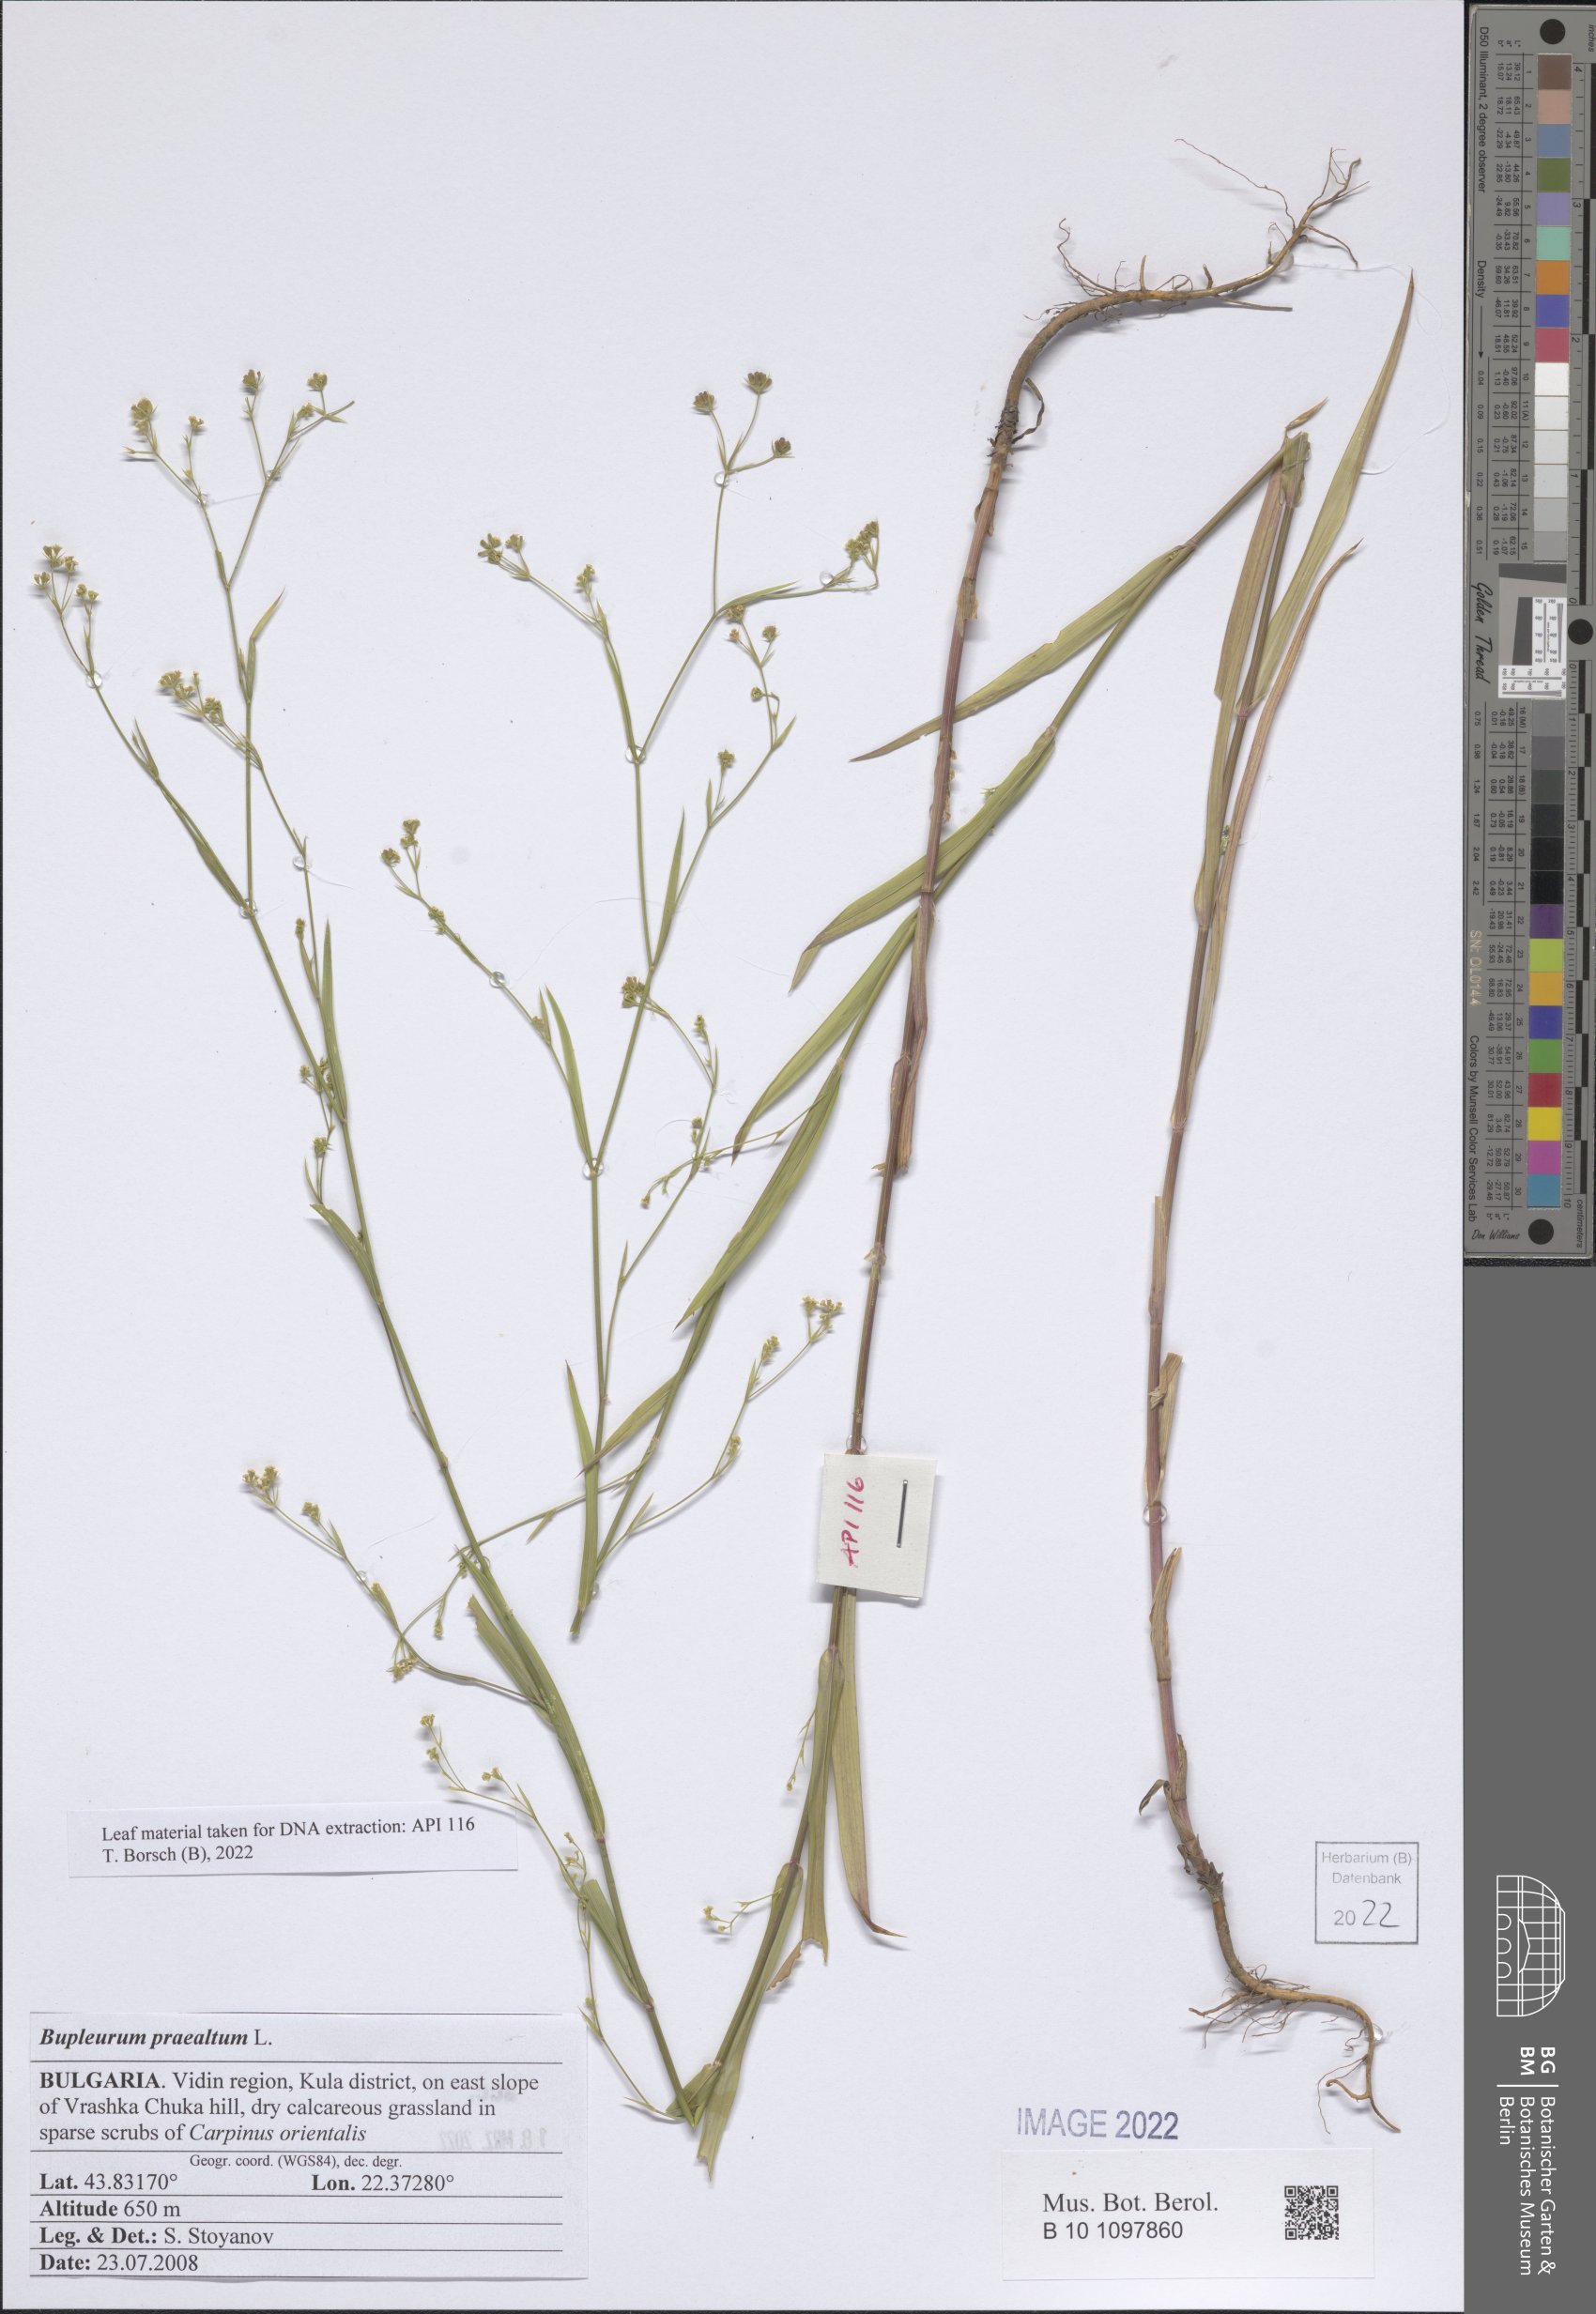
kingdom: Plantae
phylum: Tracheophyta
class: Magnoliopsida
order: Apiales
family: Apiaceae
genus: Bupleurum
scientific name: Bupleurum praealtum
